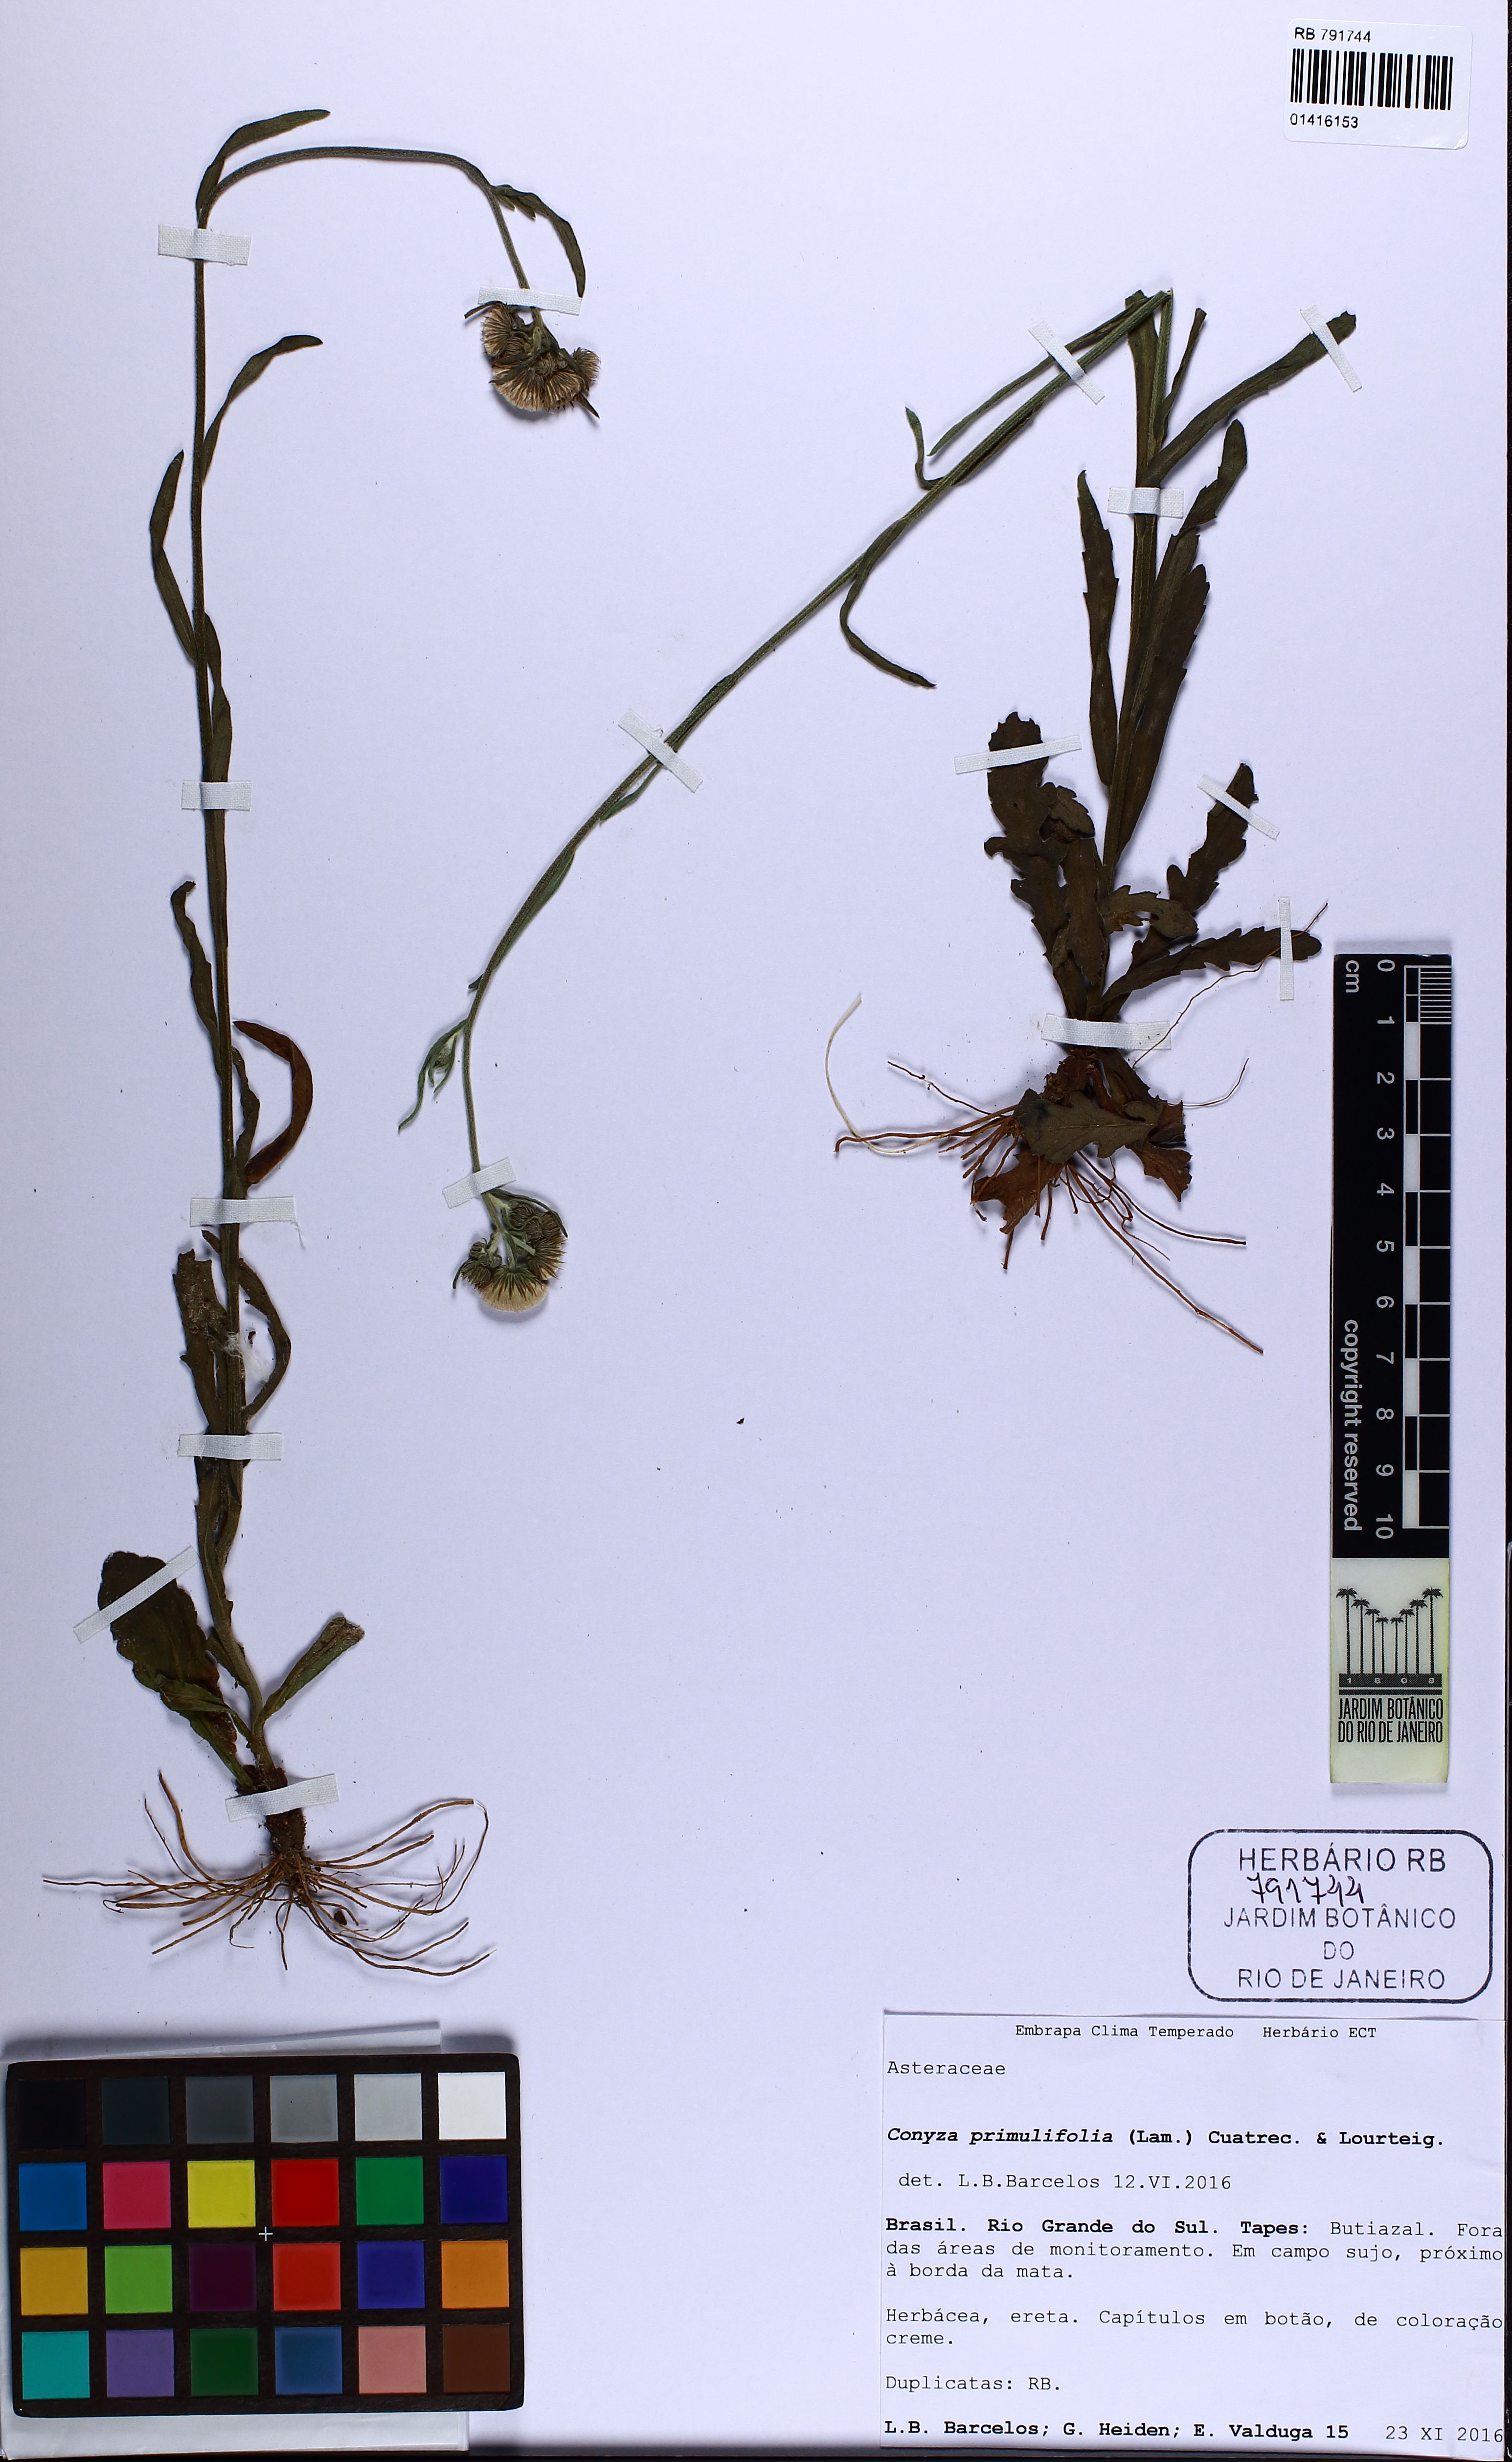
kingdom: Plantae
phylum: Tracheophyta
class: Magnoliopsida
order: Asterales
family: Asteraceae
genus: Erigeron
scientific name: Erigeron primulifolius
